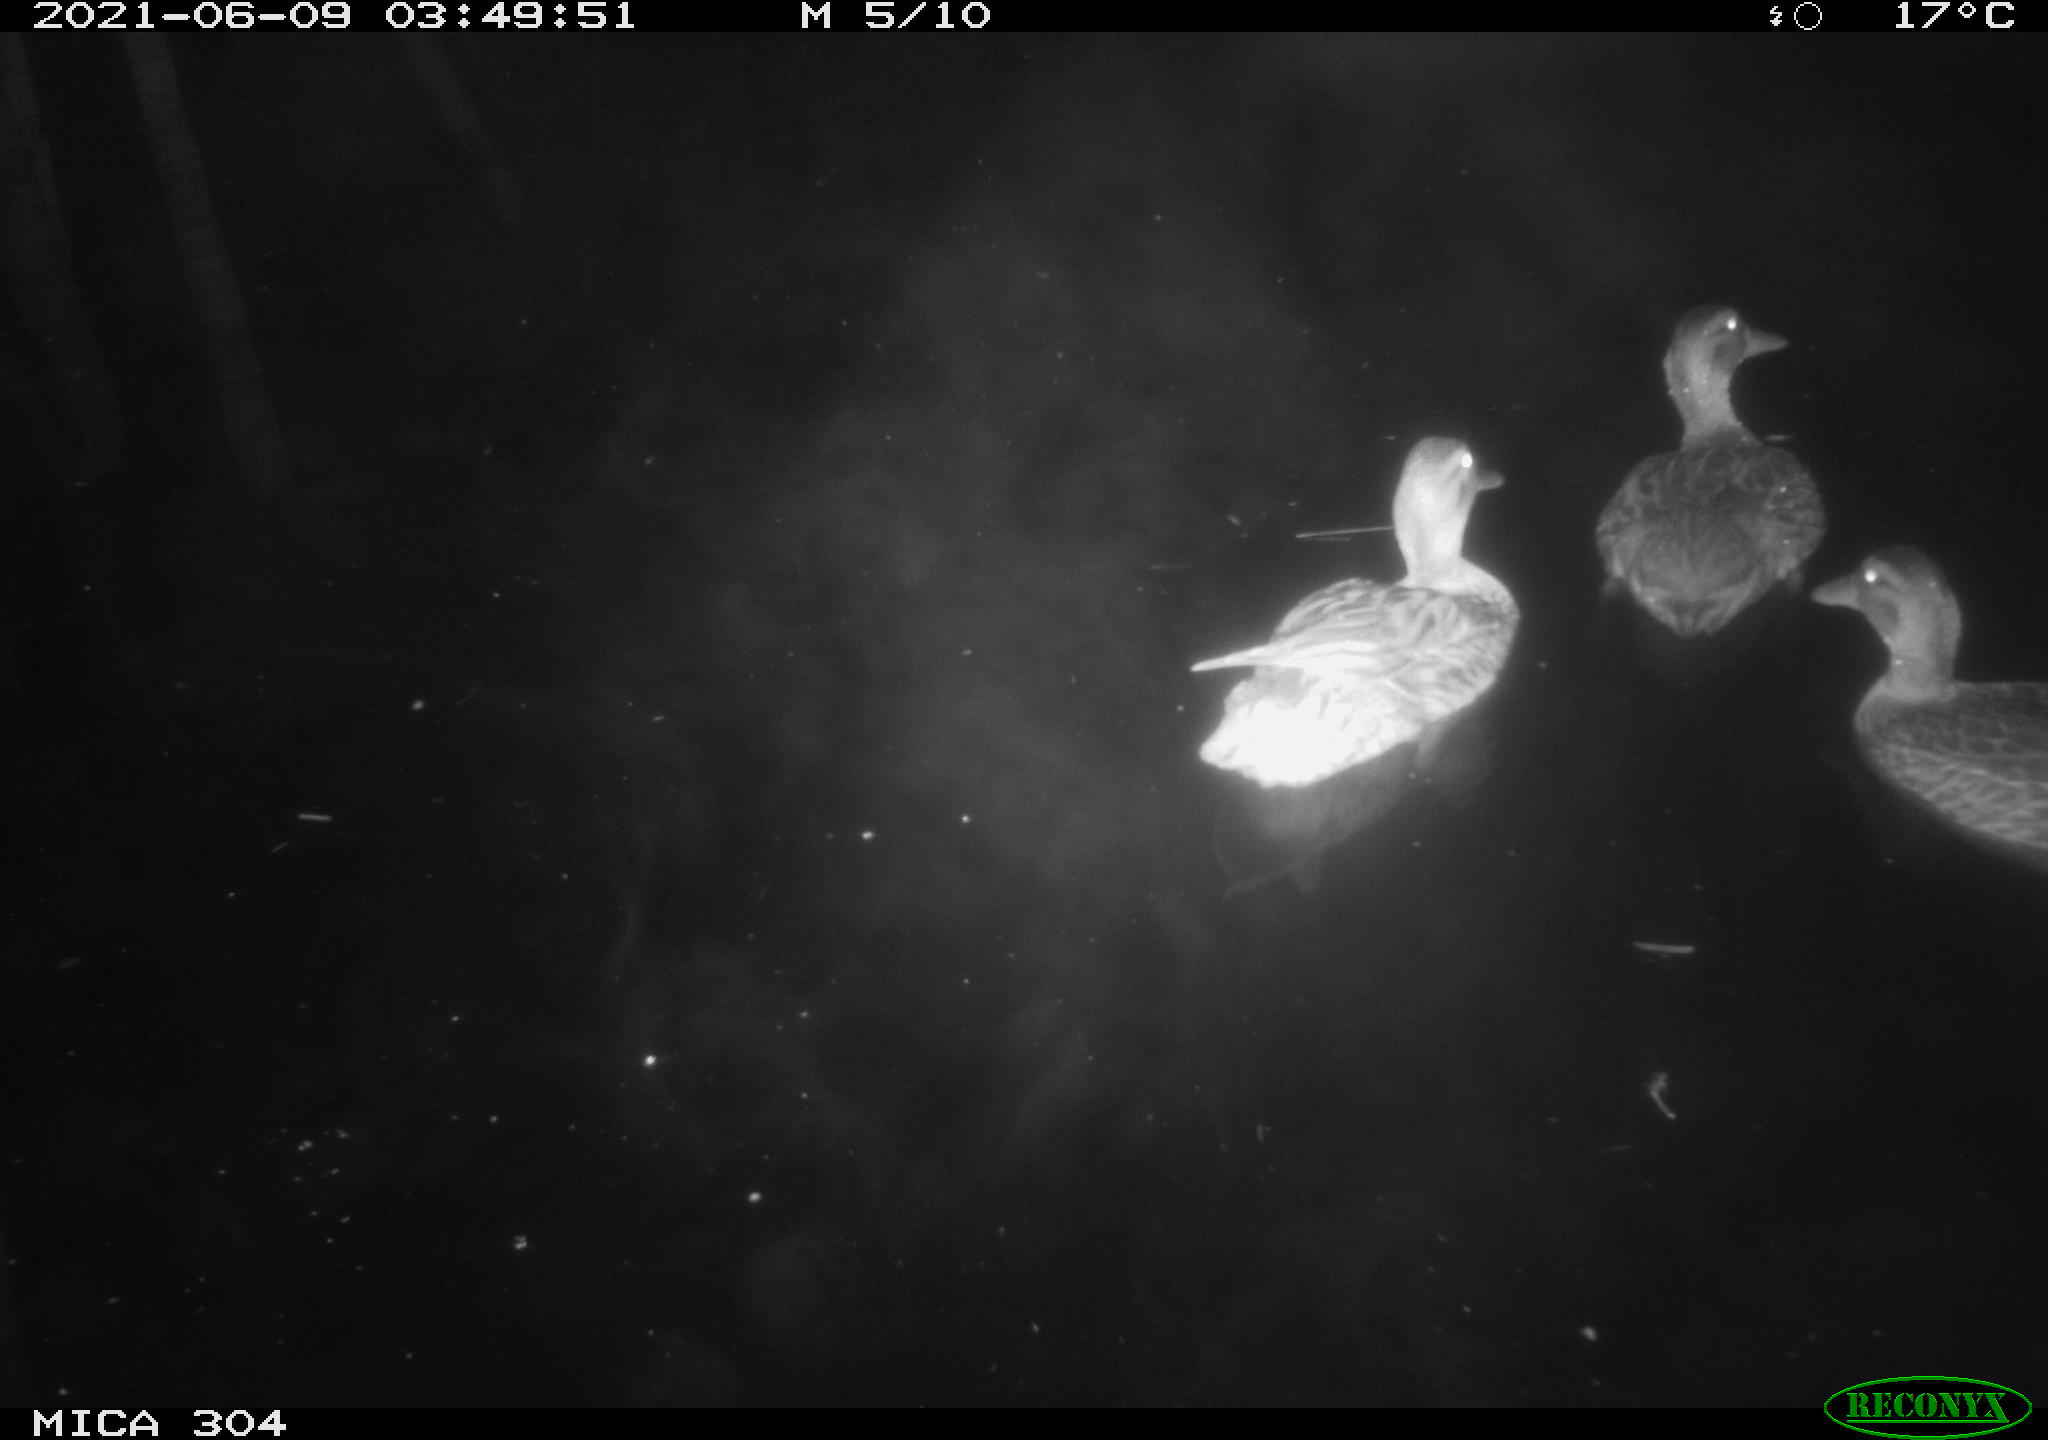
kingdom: Animalia
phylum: Chordata
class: Aves
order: Anseriformes
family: Anatidae
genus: Mareca
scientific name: Mareca strepera
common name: Gadwall
